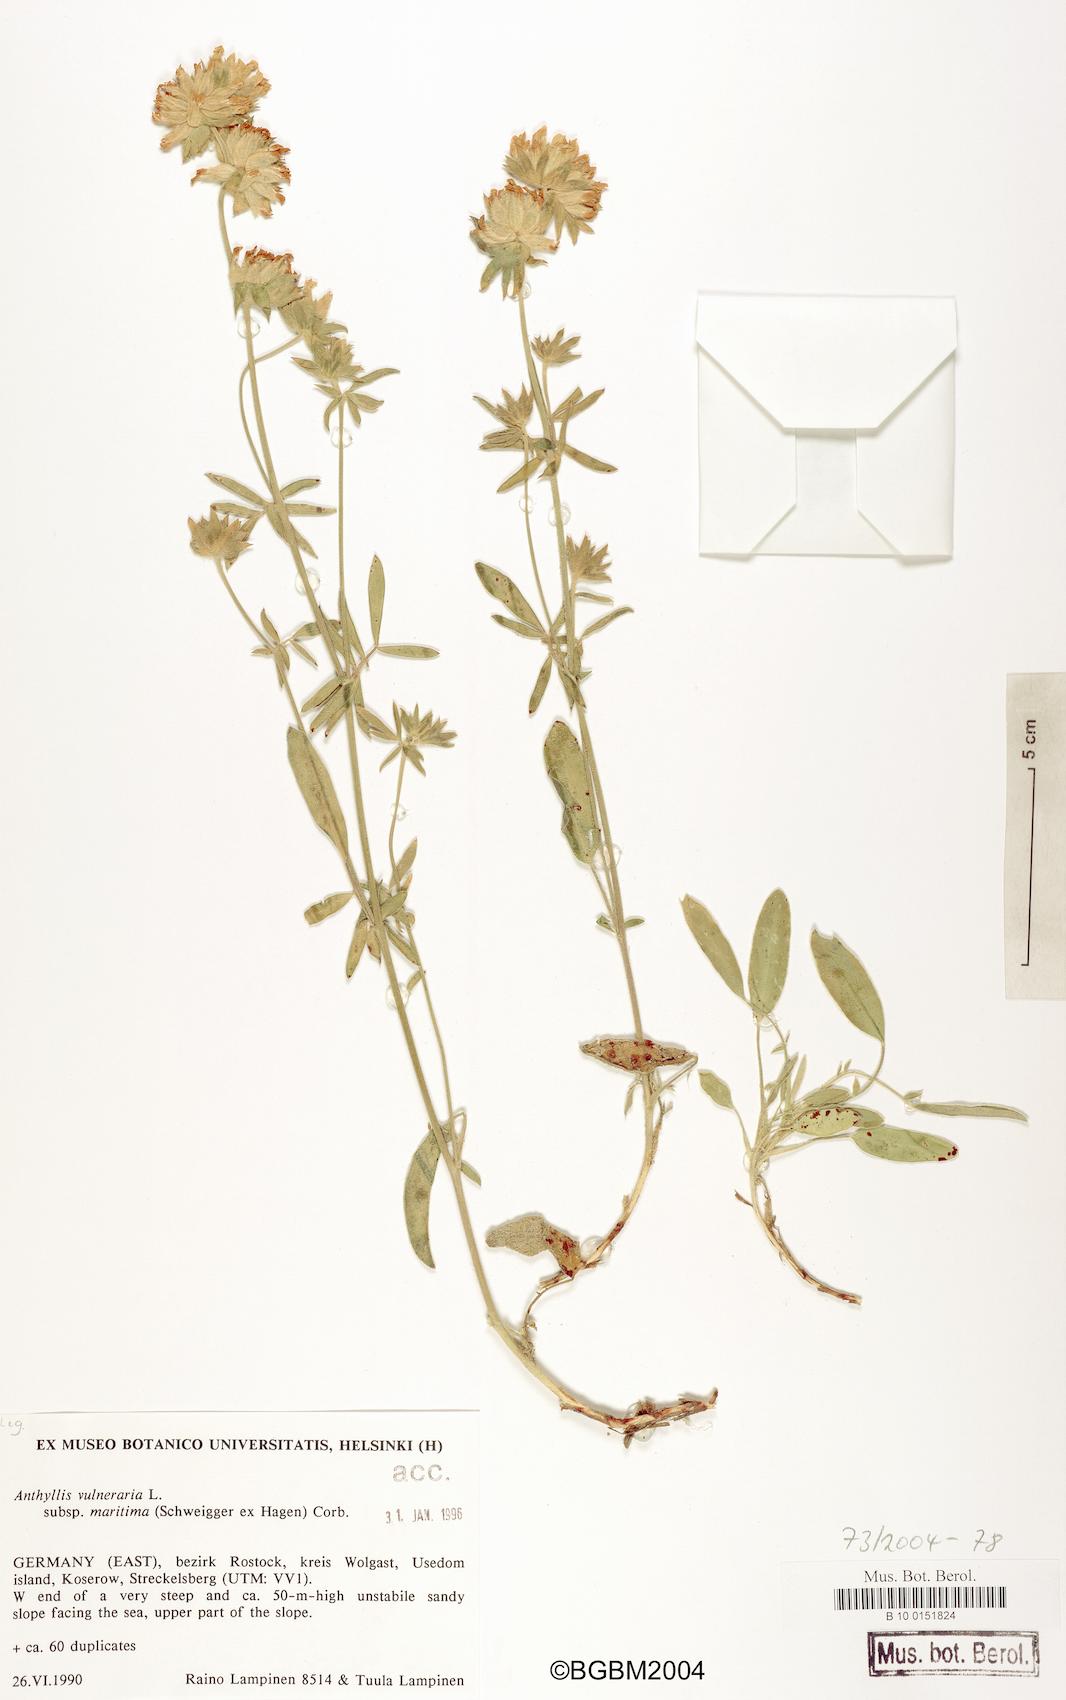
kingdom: Plantae
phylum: Tracheophyta
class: Magnoliopsida
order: Fabales
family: Fabaceae
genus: Anthyllis
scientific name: Anthyllis vulneraria
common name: Kidney vetch
